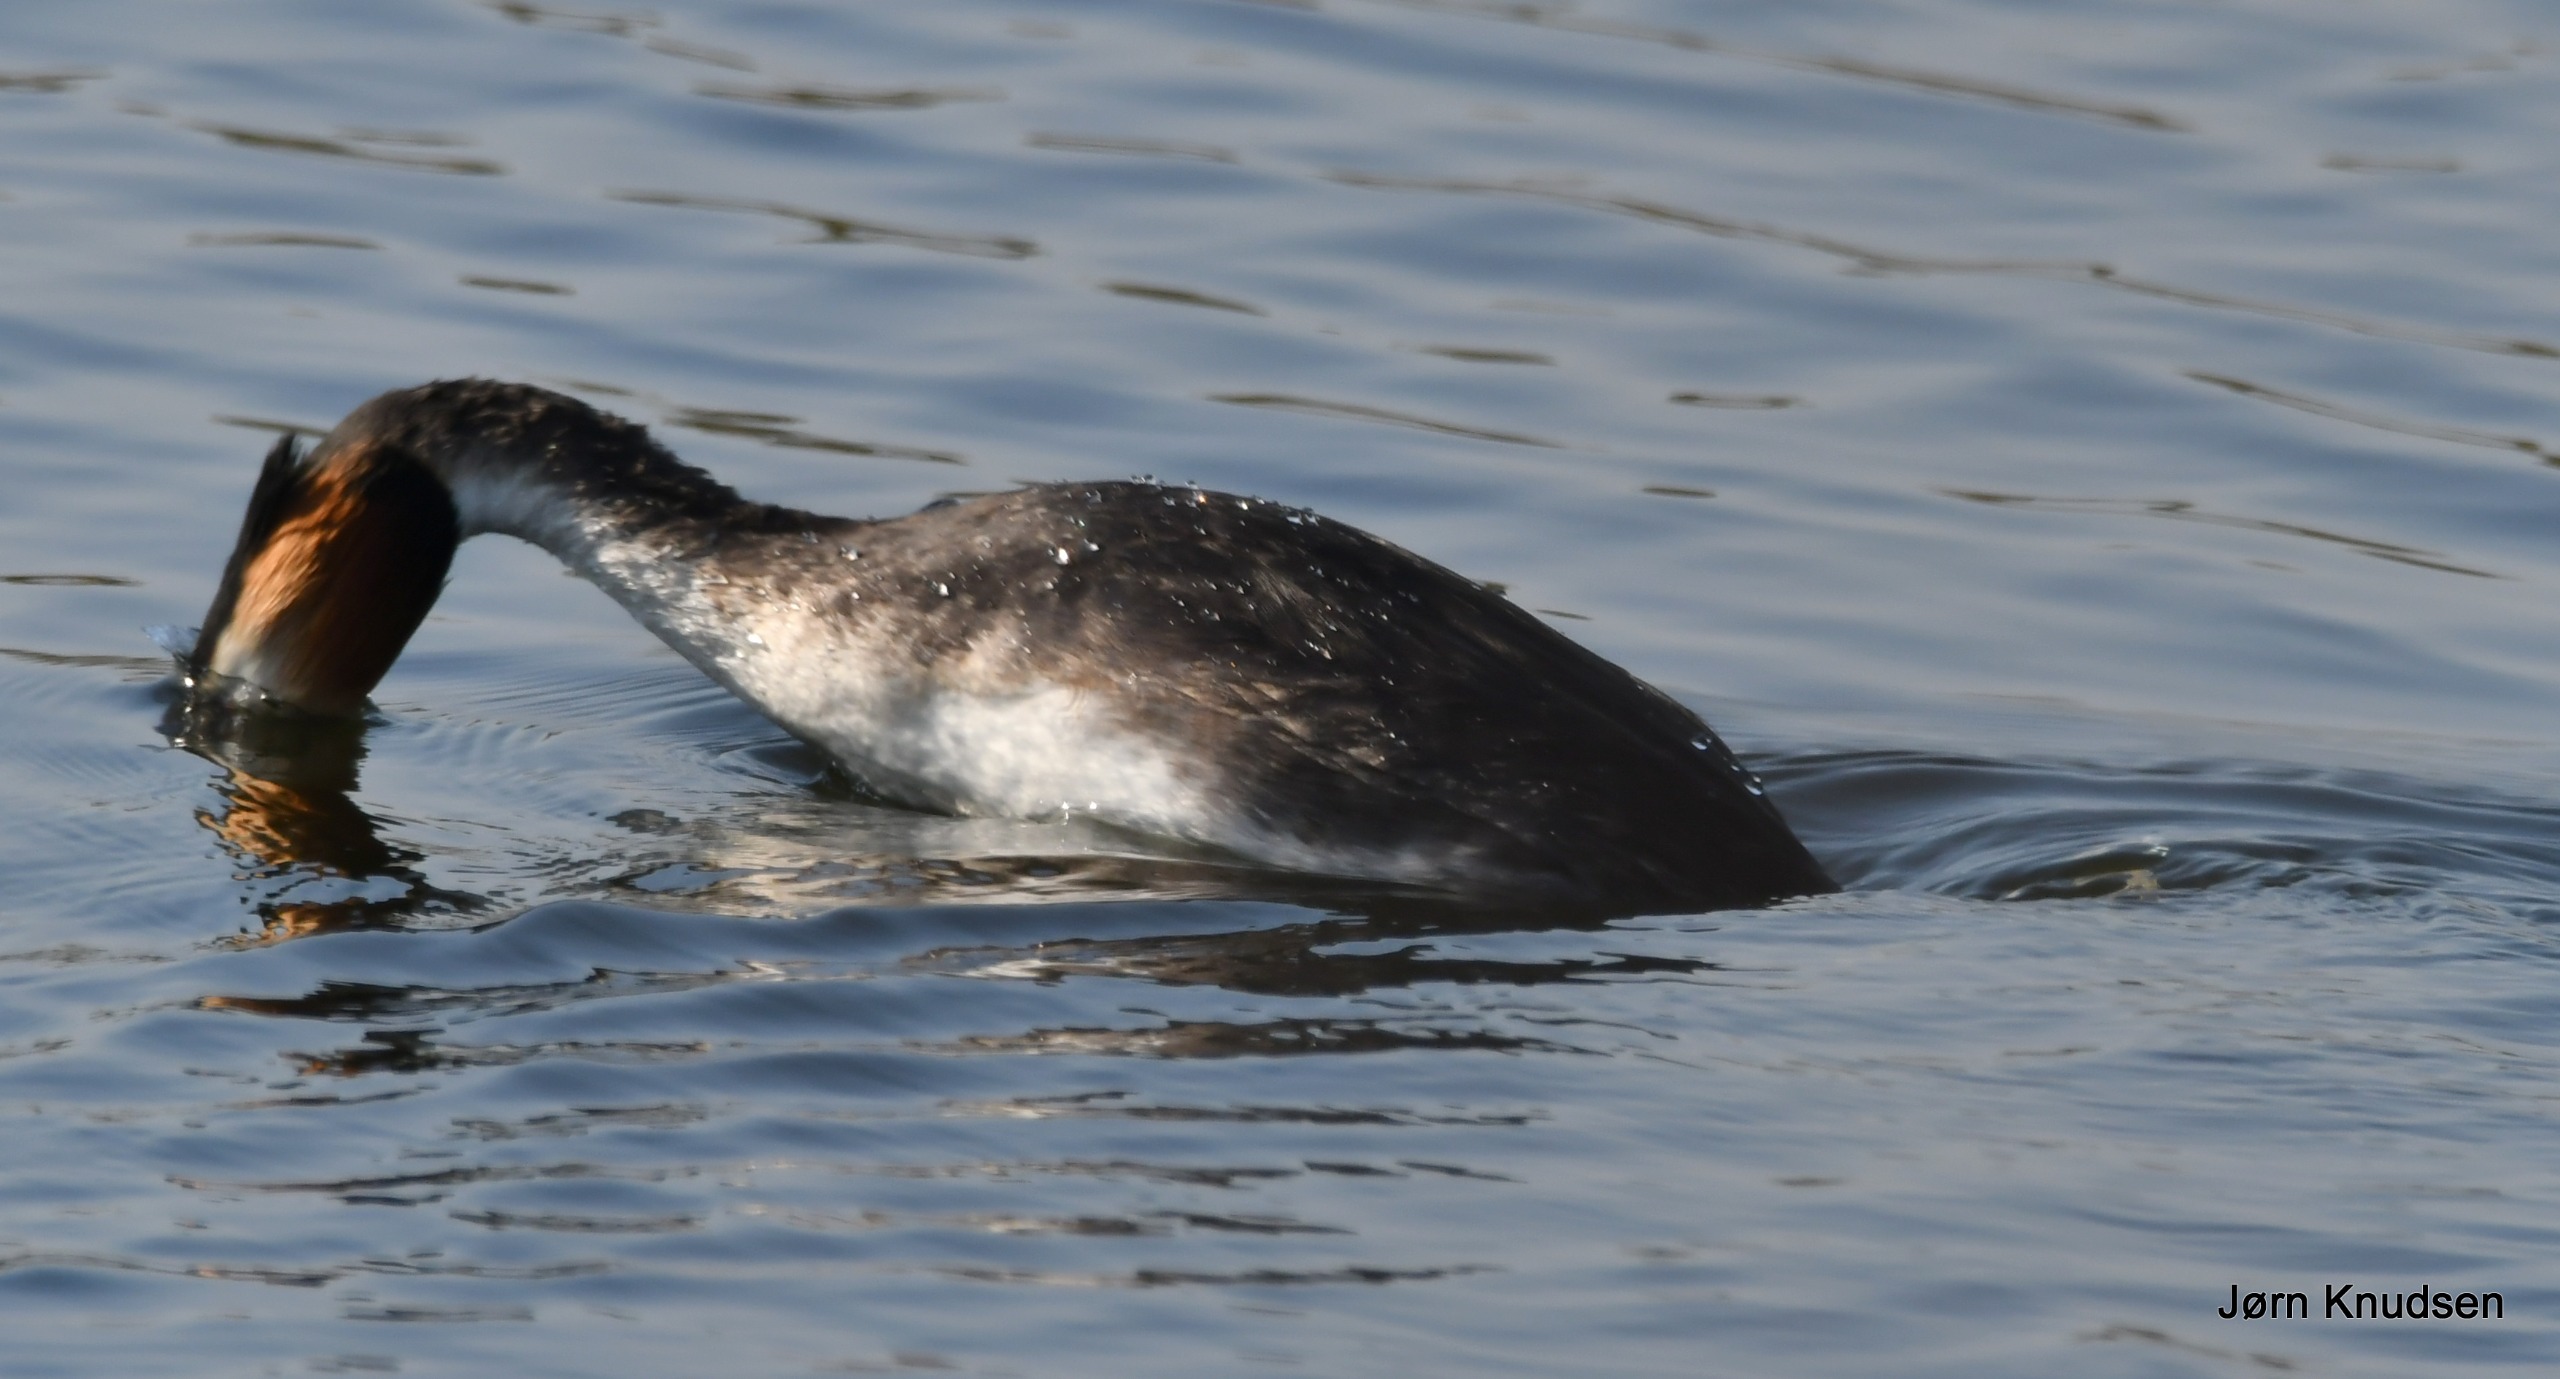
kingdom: Animalia
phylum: Chordata
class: Aves
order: Podicipediformes
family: Podicipedidae
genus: Podiceps
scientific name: Podiceps cristatus
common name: Toppet lappedykker
